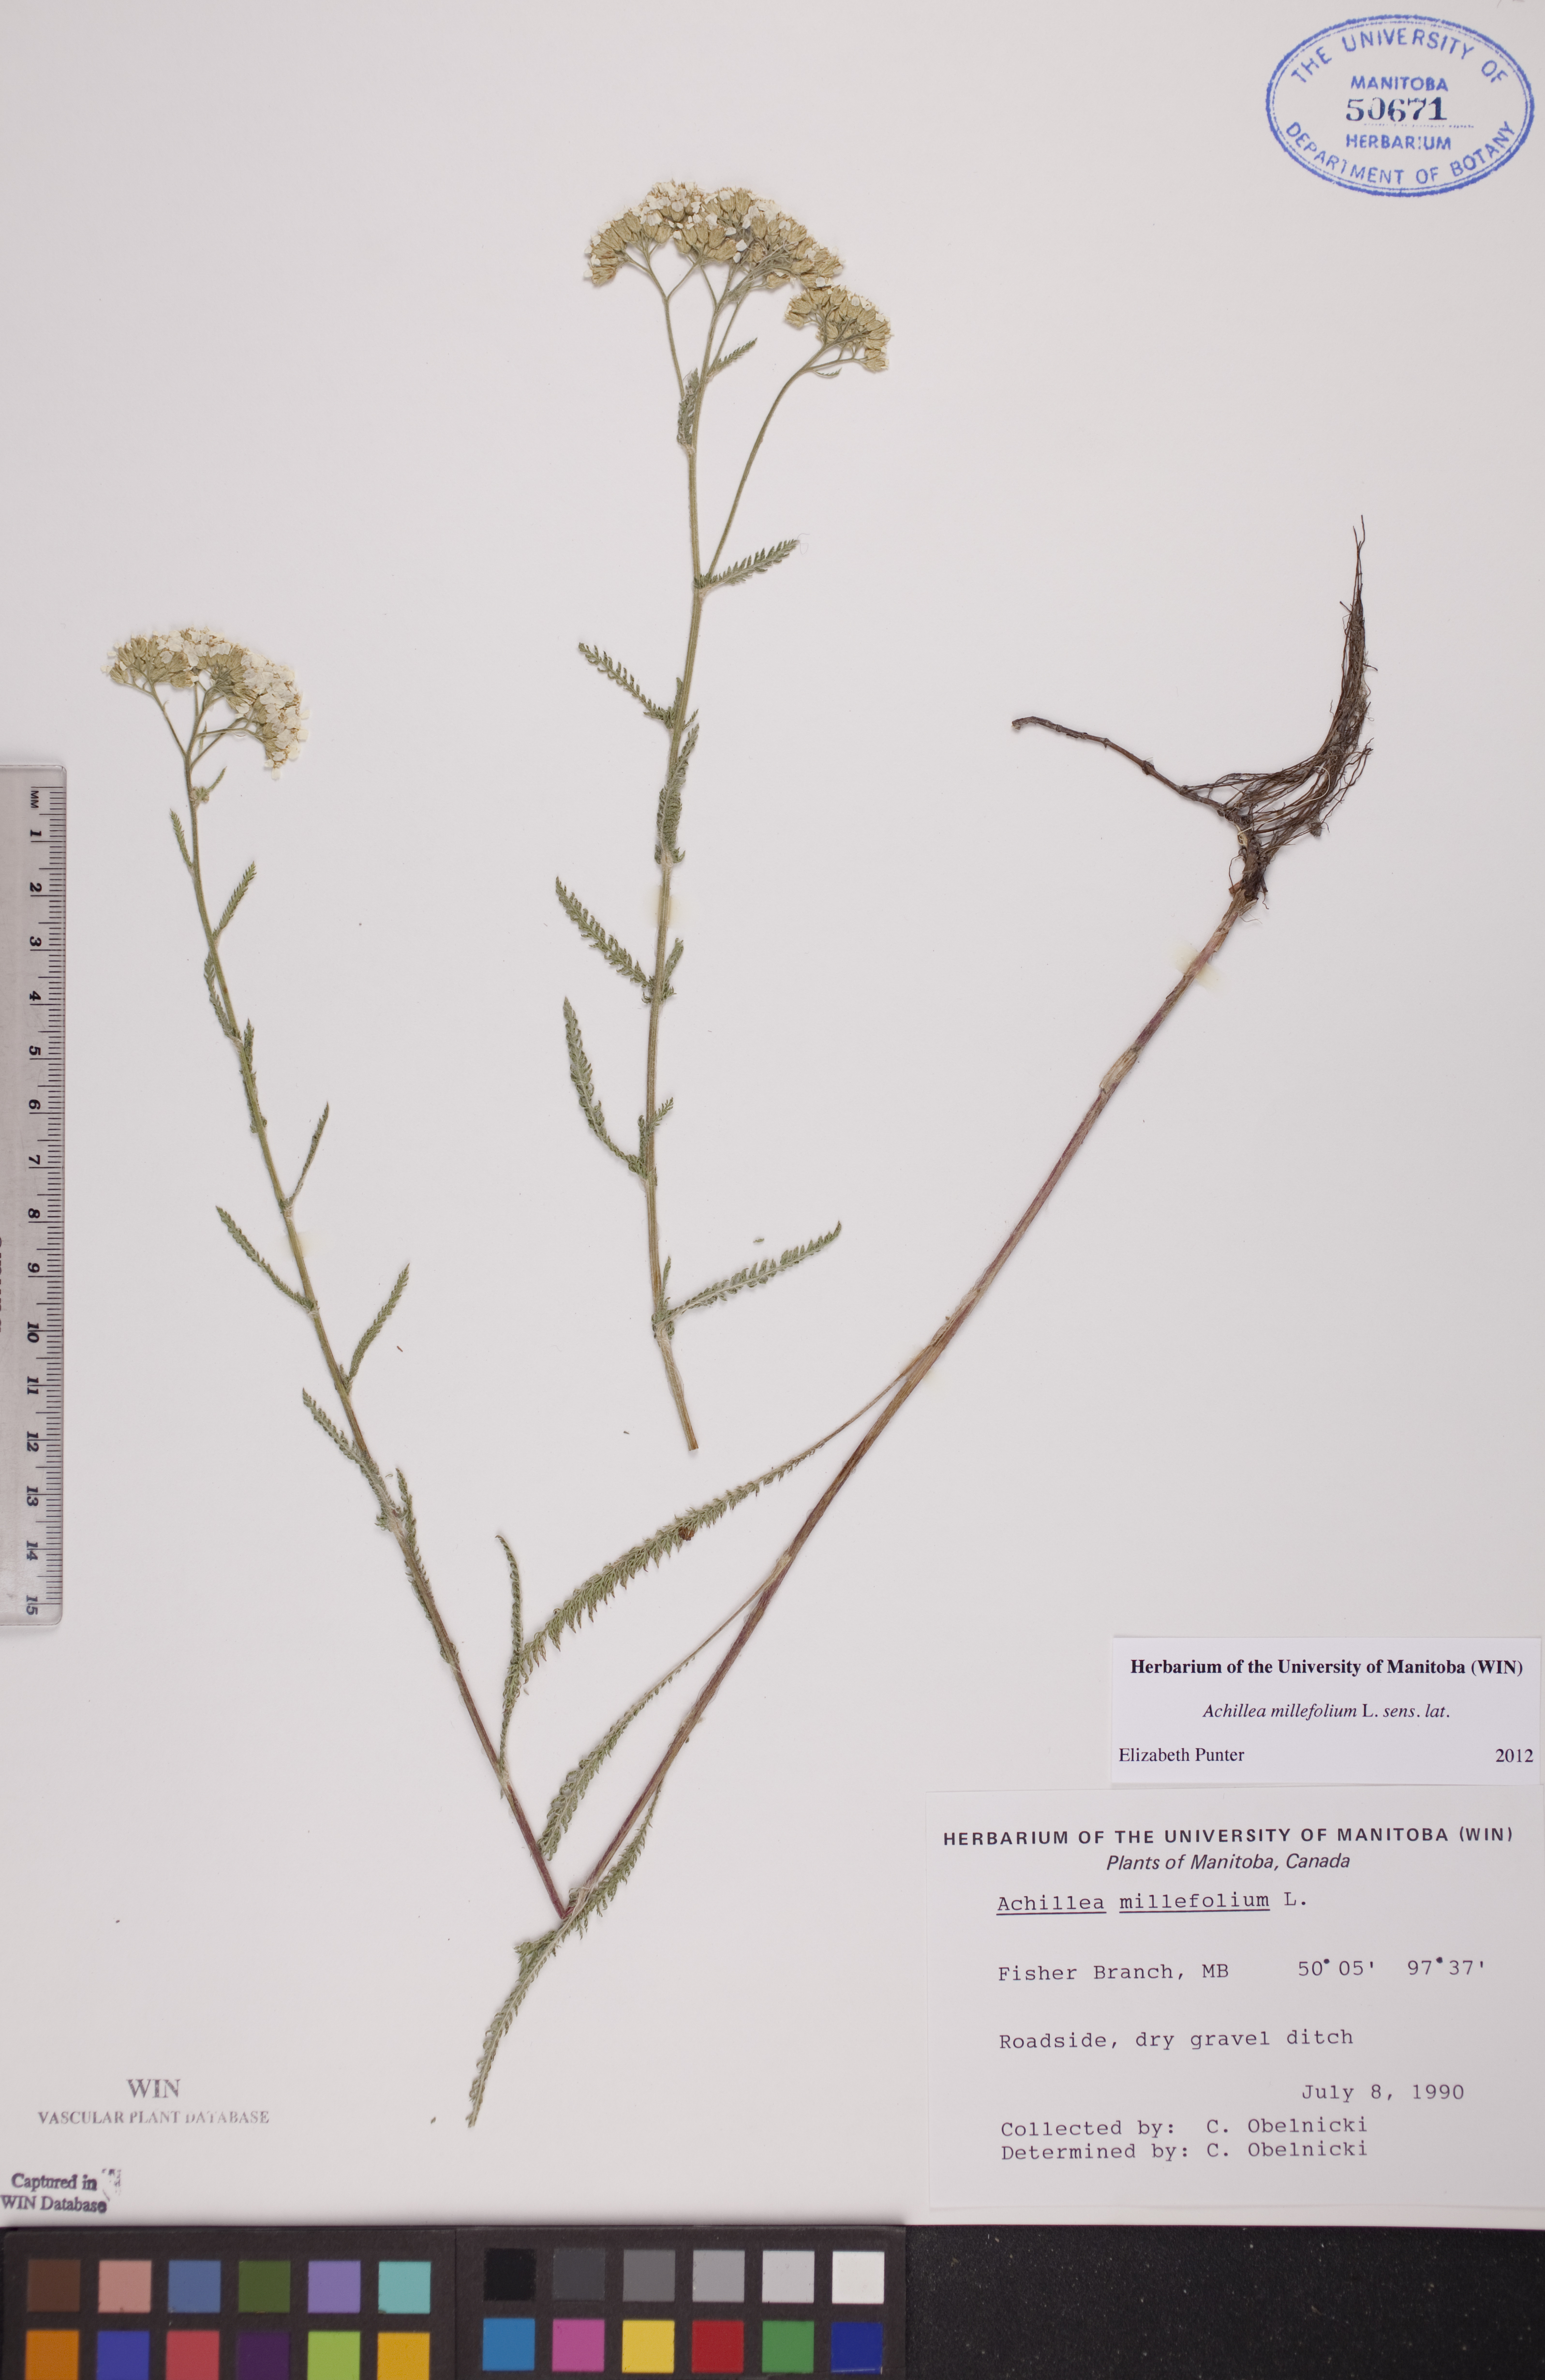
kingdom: Plantae
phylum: Tracheophyta
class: Magnoliopsida
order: Asterales
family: Asteraceae
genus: Achillea
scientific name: Achillea millefolium
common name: Yarrow
